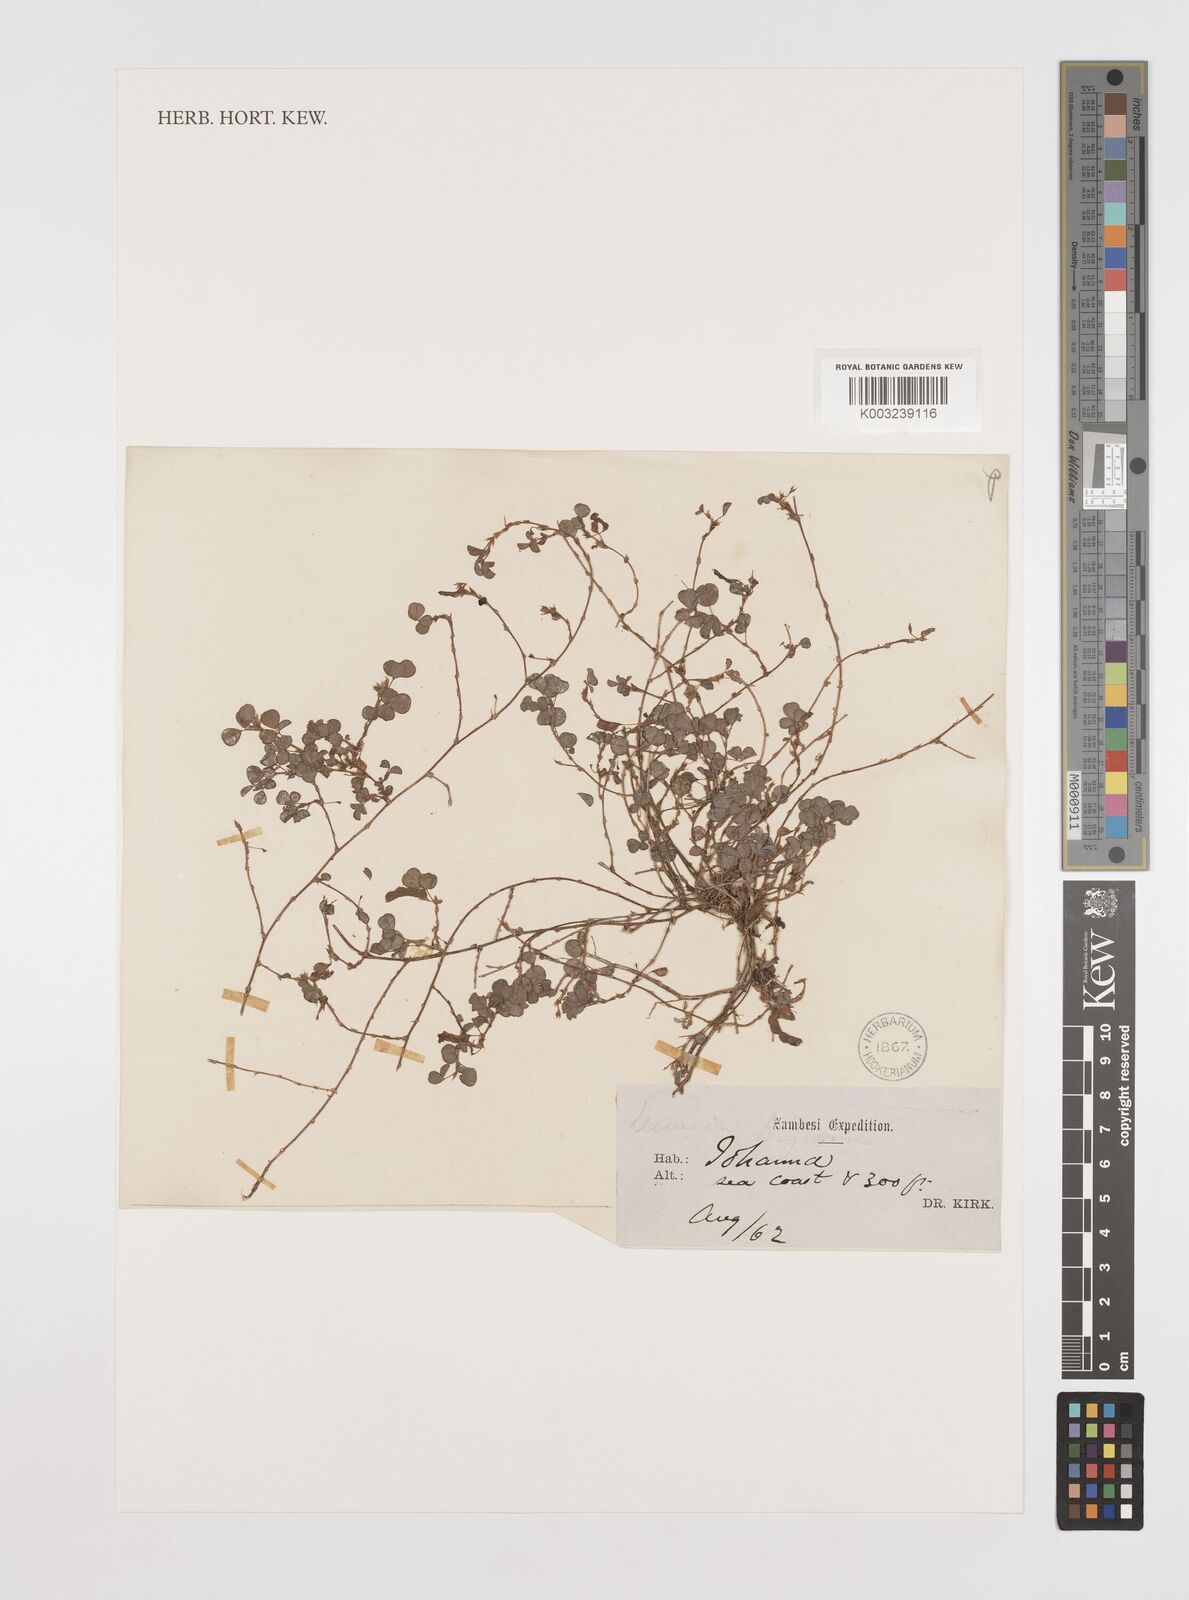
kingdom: Plantae
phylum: Tracheophyta
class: Magnoliopsida
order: Fabales
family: Fabaceae
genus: Grona
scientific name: Grona triflora
